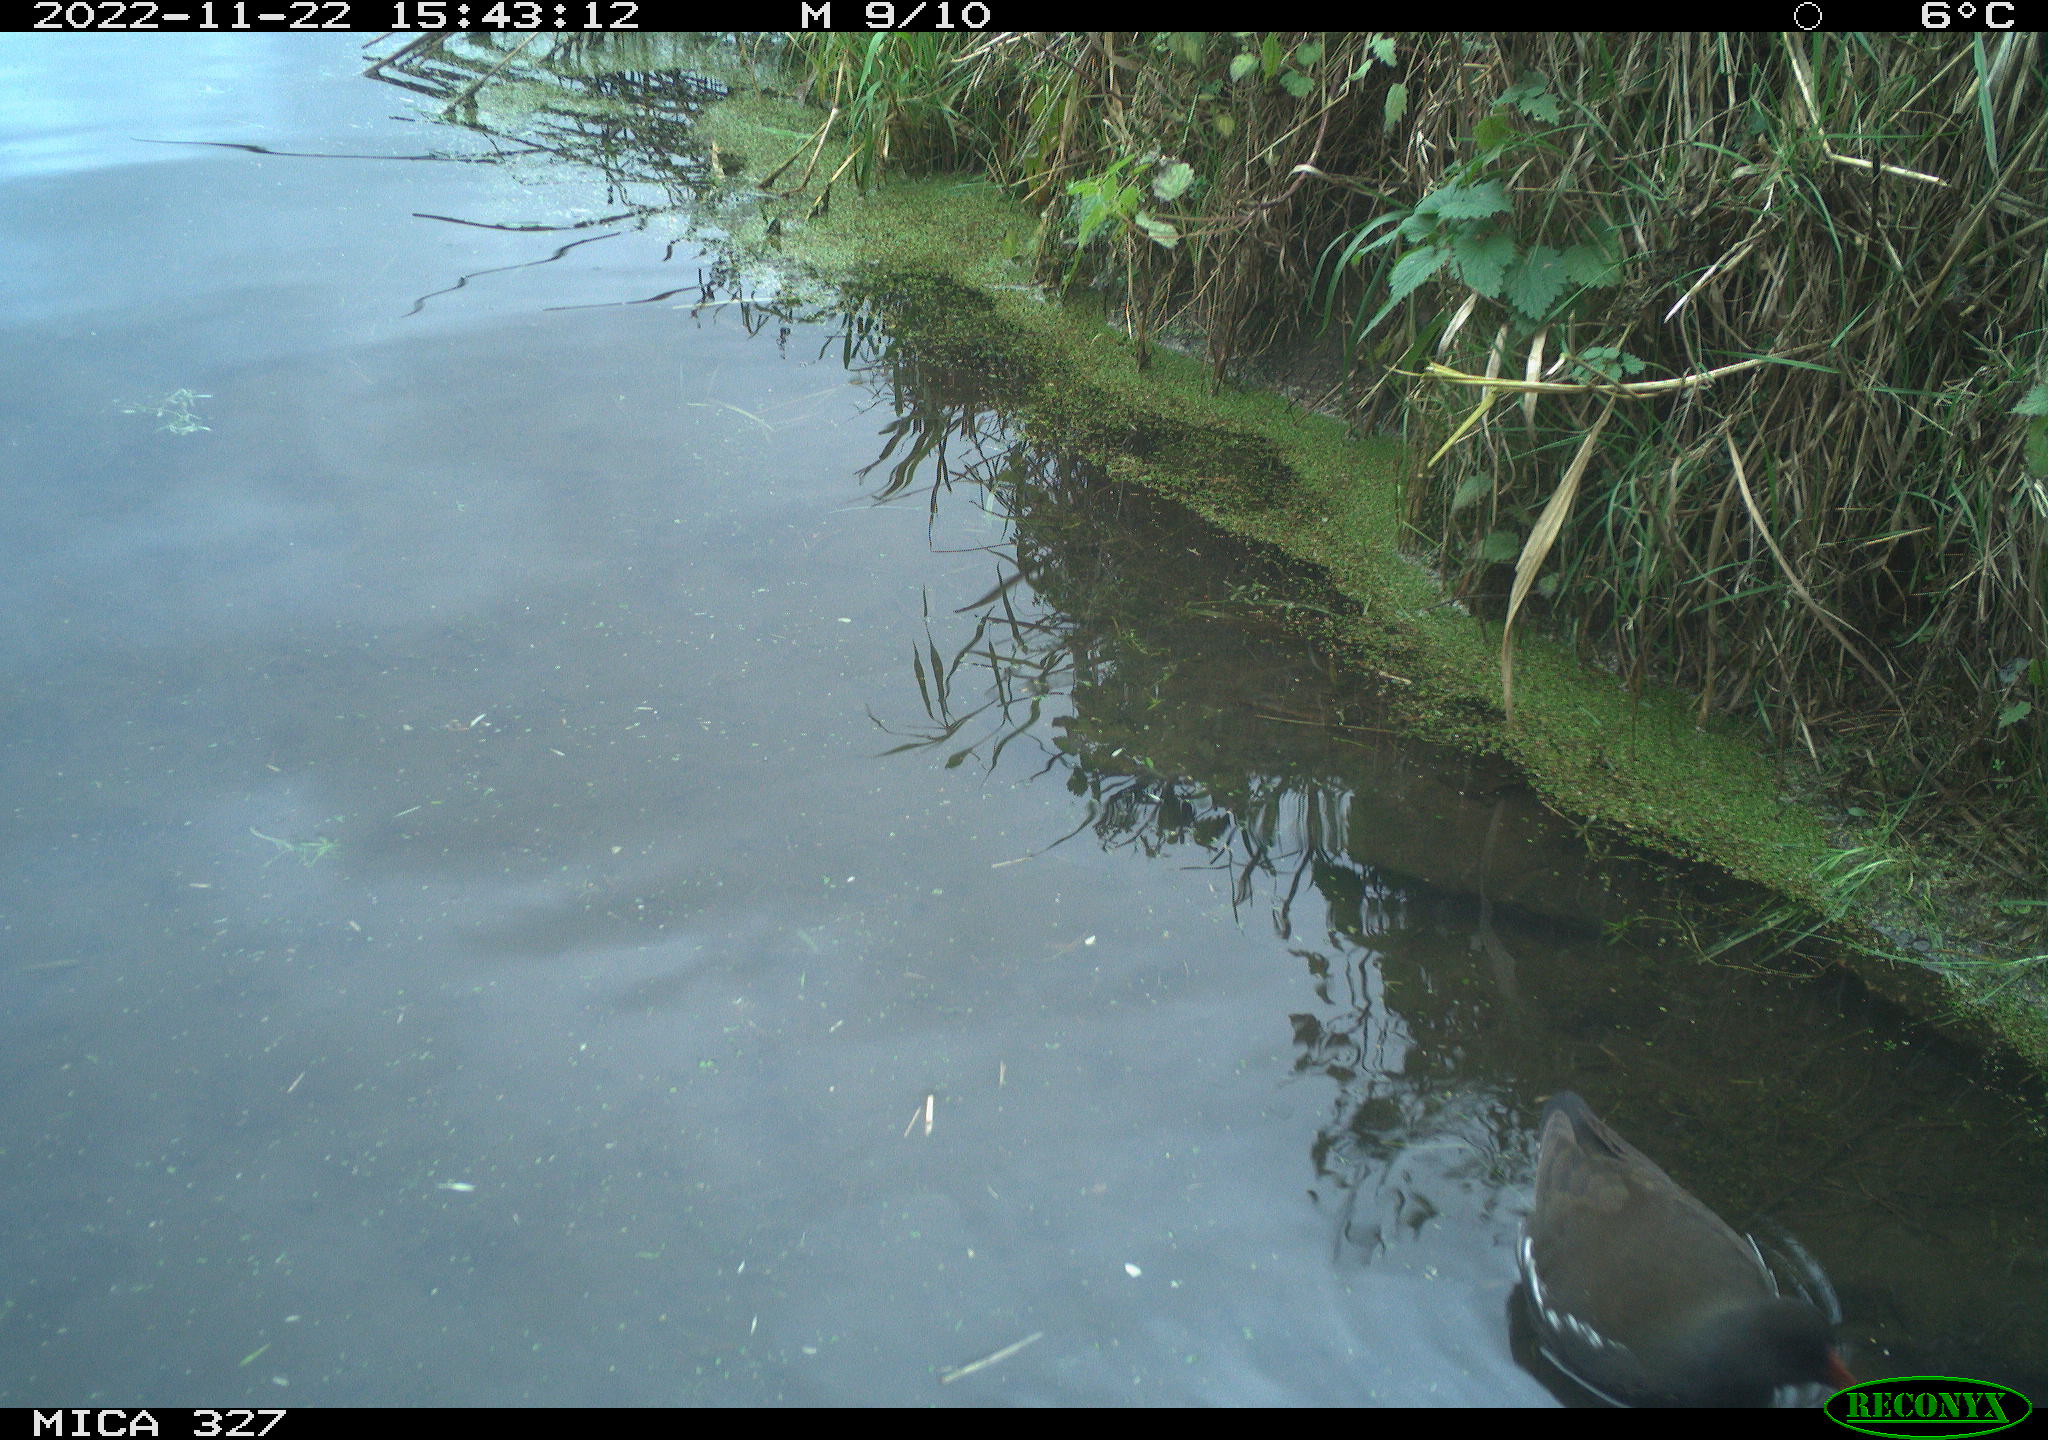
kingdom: Animalia
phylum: Chordata
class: Aves
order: Gruiformes
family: Rallidae
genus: Gallinula
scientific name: Gallinula chloropus
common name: Common moorhen
